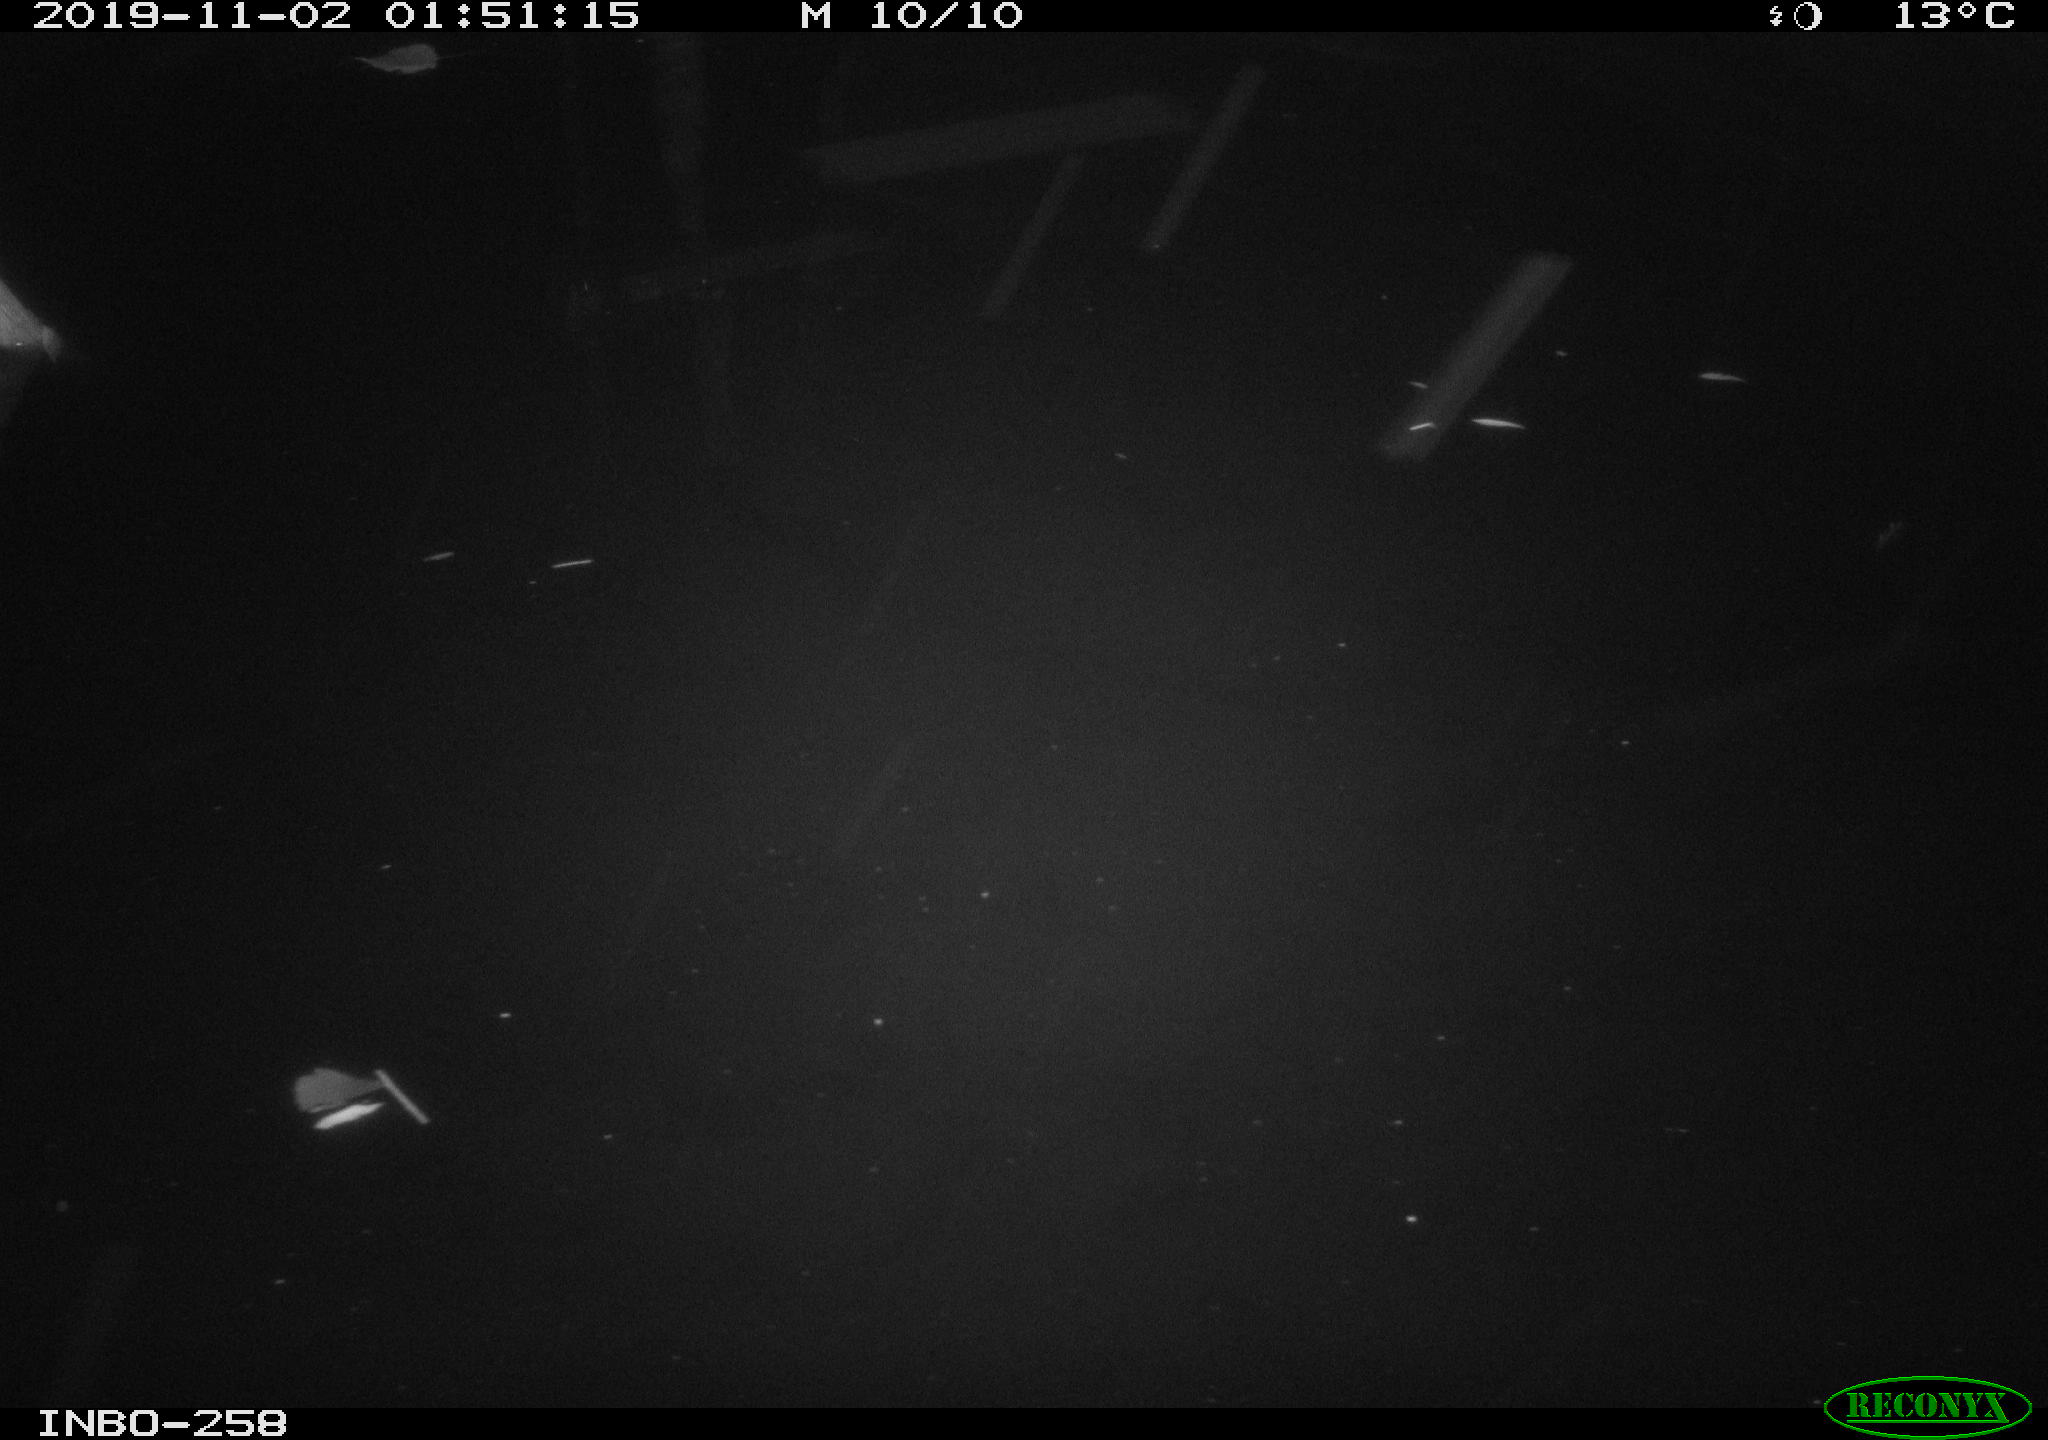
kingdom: Animalia
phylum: Chordata
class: Aves
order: Anseriformes
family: Anatidae
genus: Anas
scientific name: Anas platyrhynchos
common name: Mallard
